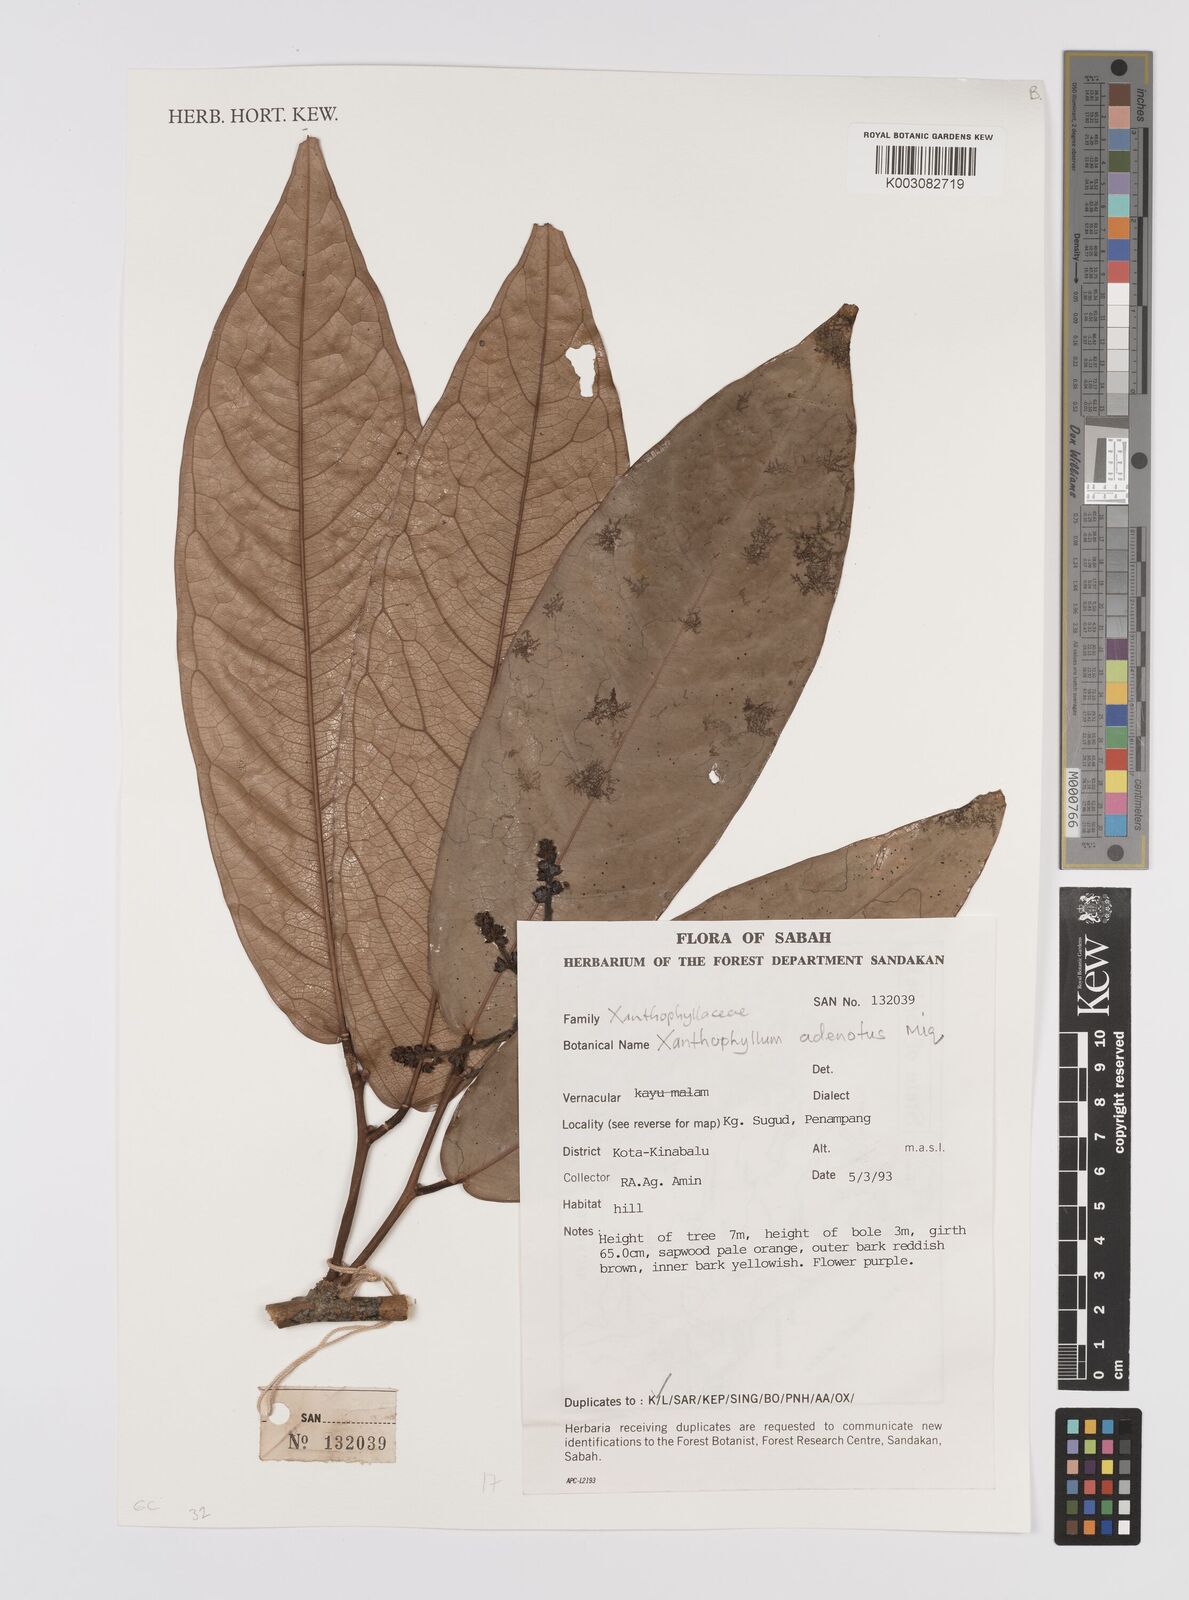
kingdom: Plantae
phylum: Tracheophyta
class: Magnoliopsida
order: Fabales
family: Polygalaceae
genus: Xanthophyllum
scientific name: Xanthophyllum adenotus
